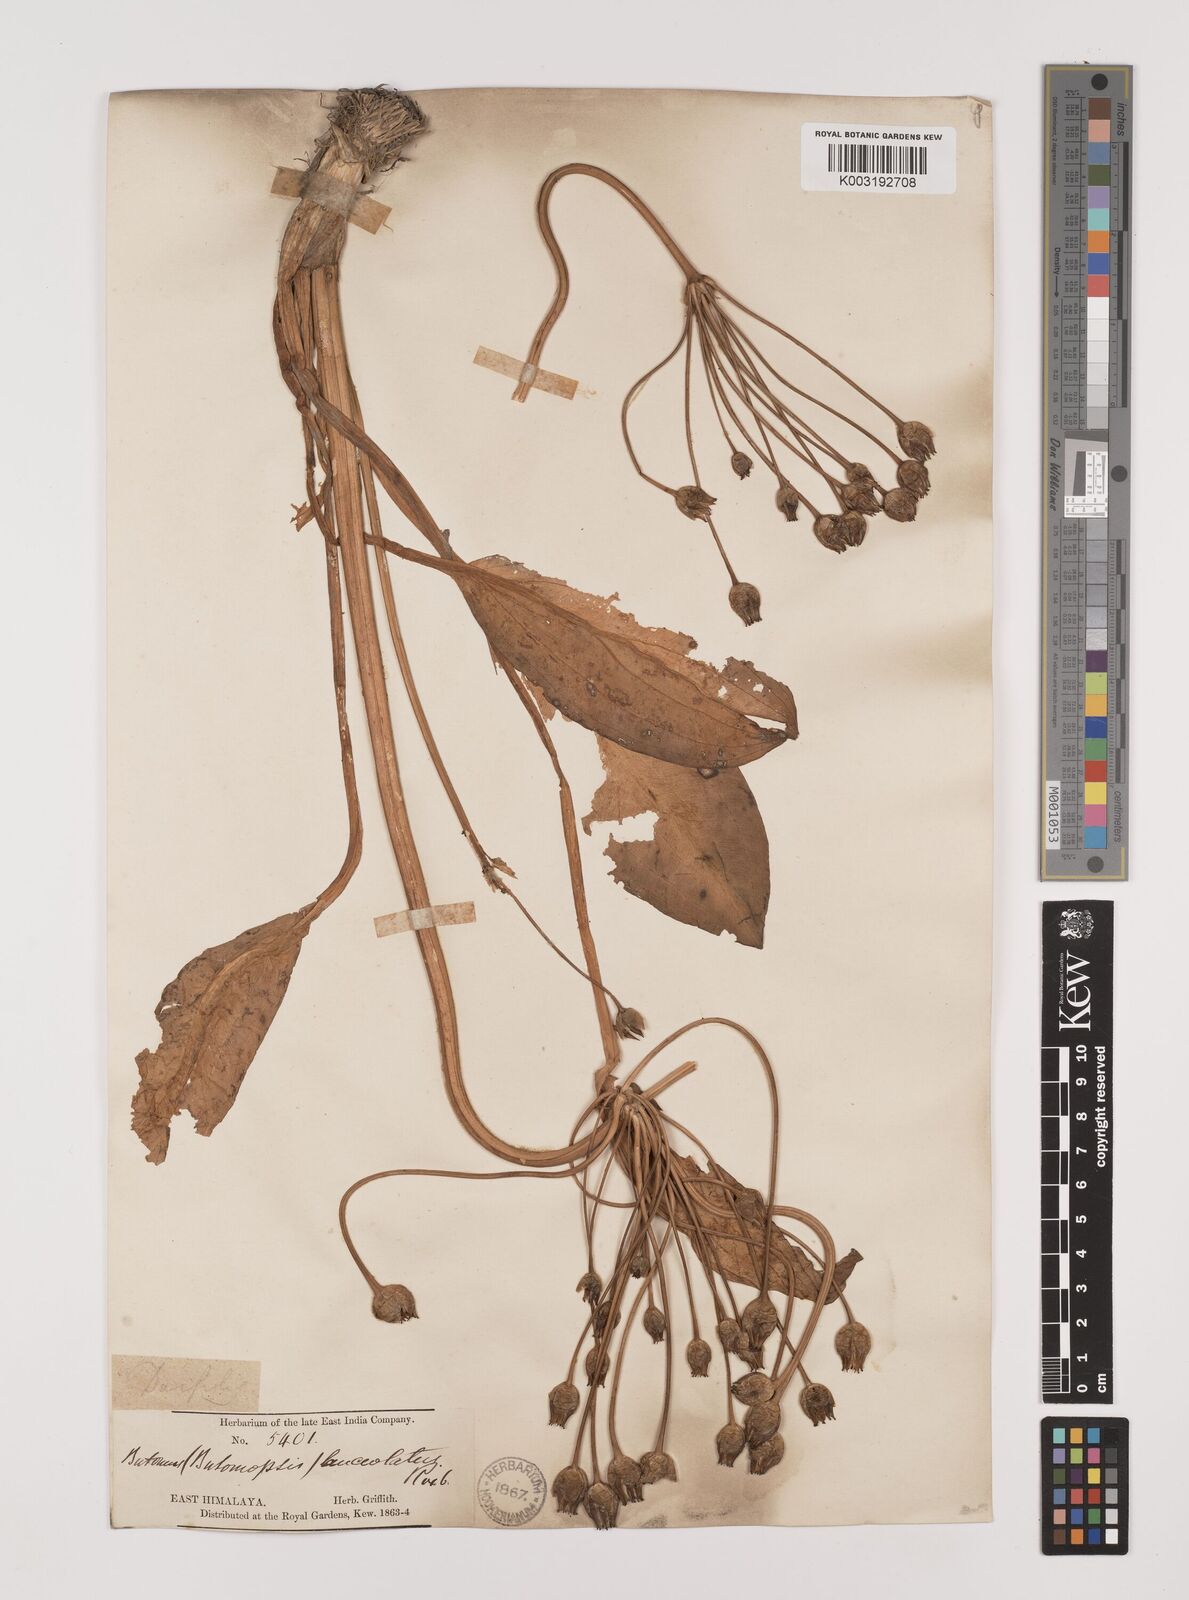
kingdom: Plantae
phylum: Tracheophyta
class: Liliopsida
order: Alismatales
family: Alismataceae
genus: Butomopsis
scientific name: Butomopsis latifolia
